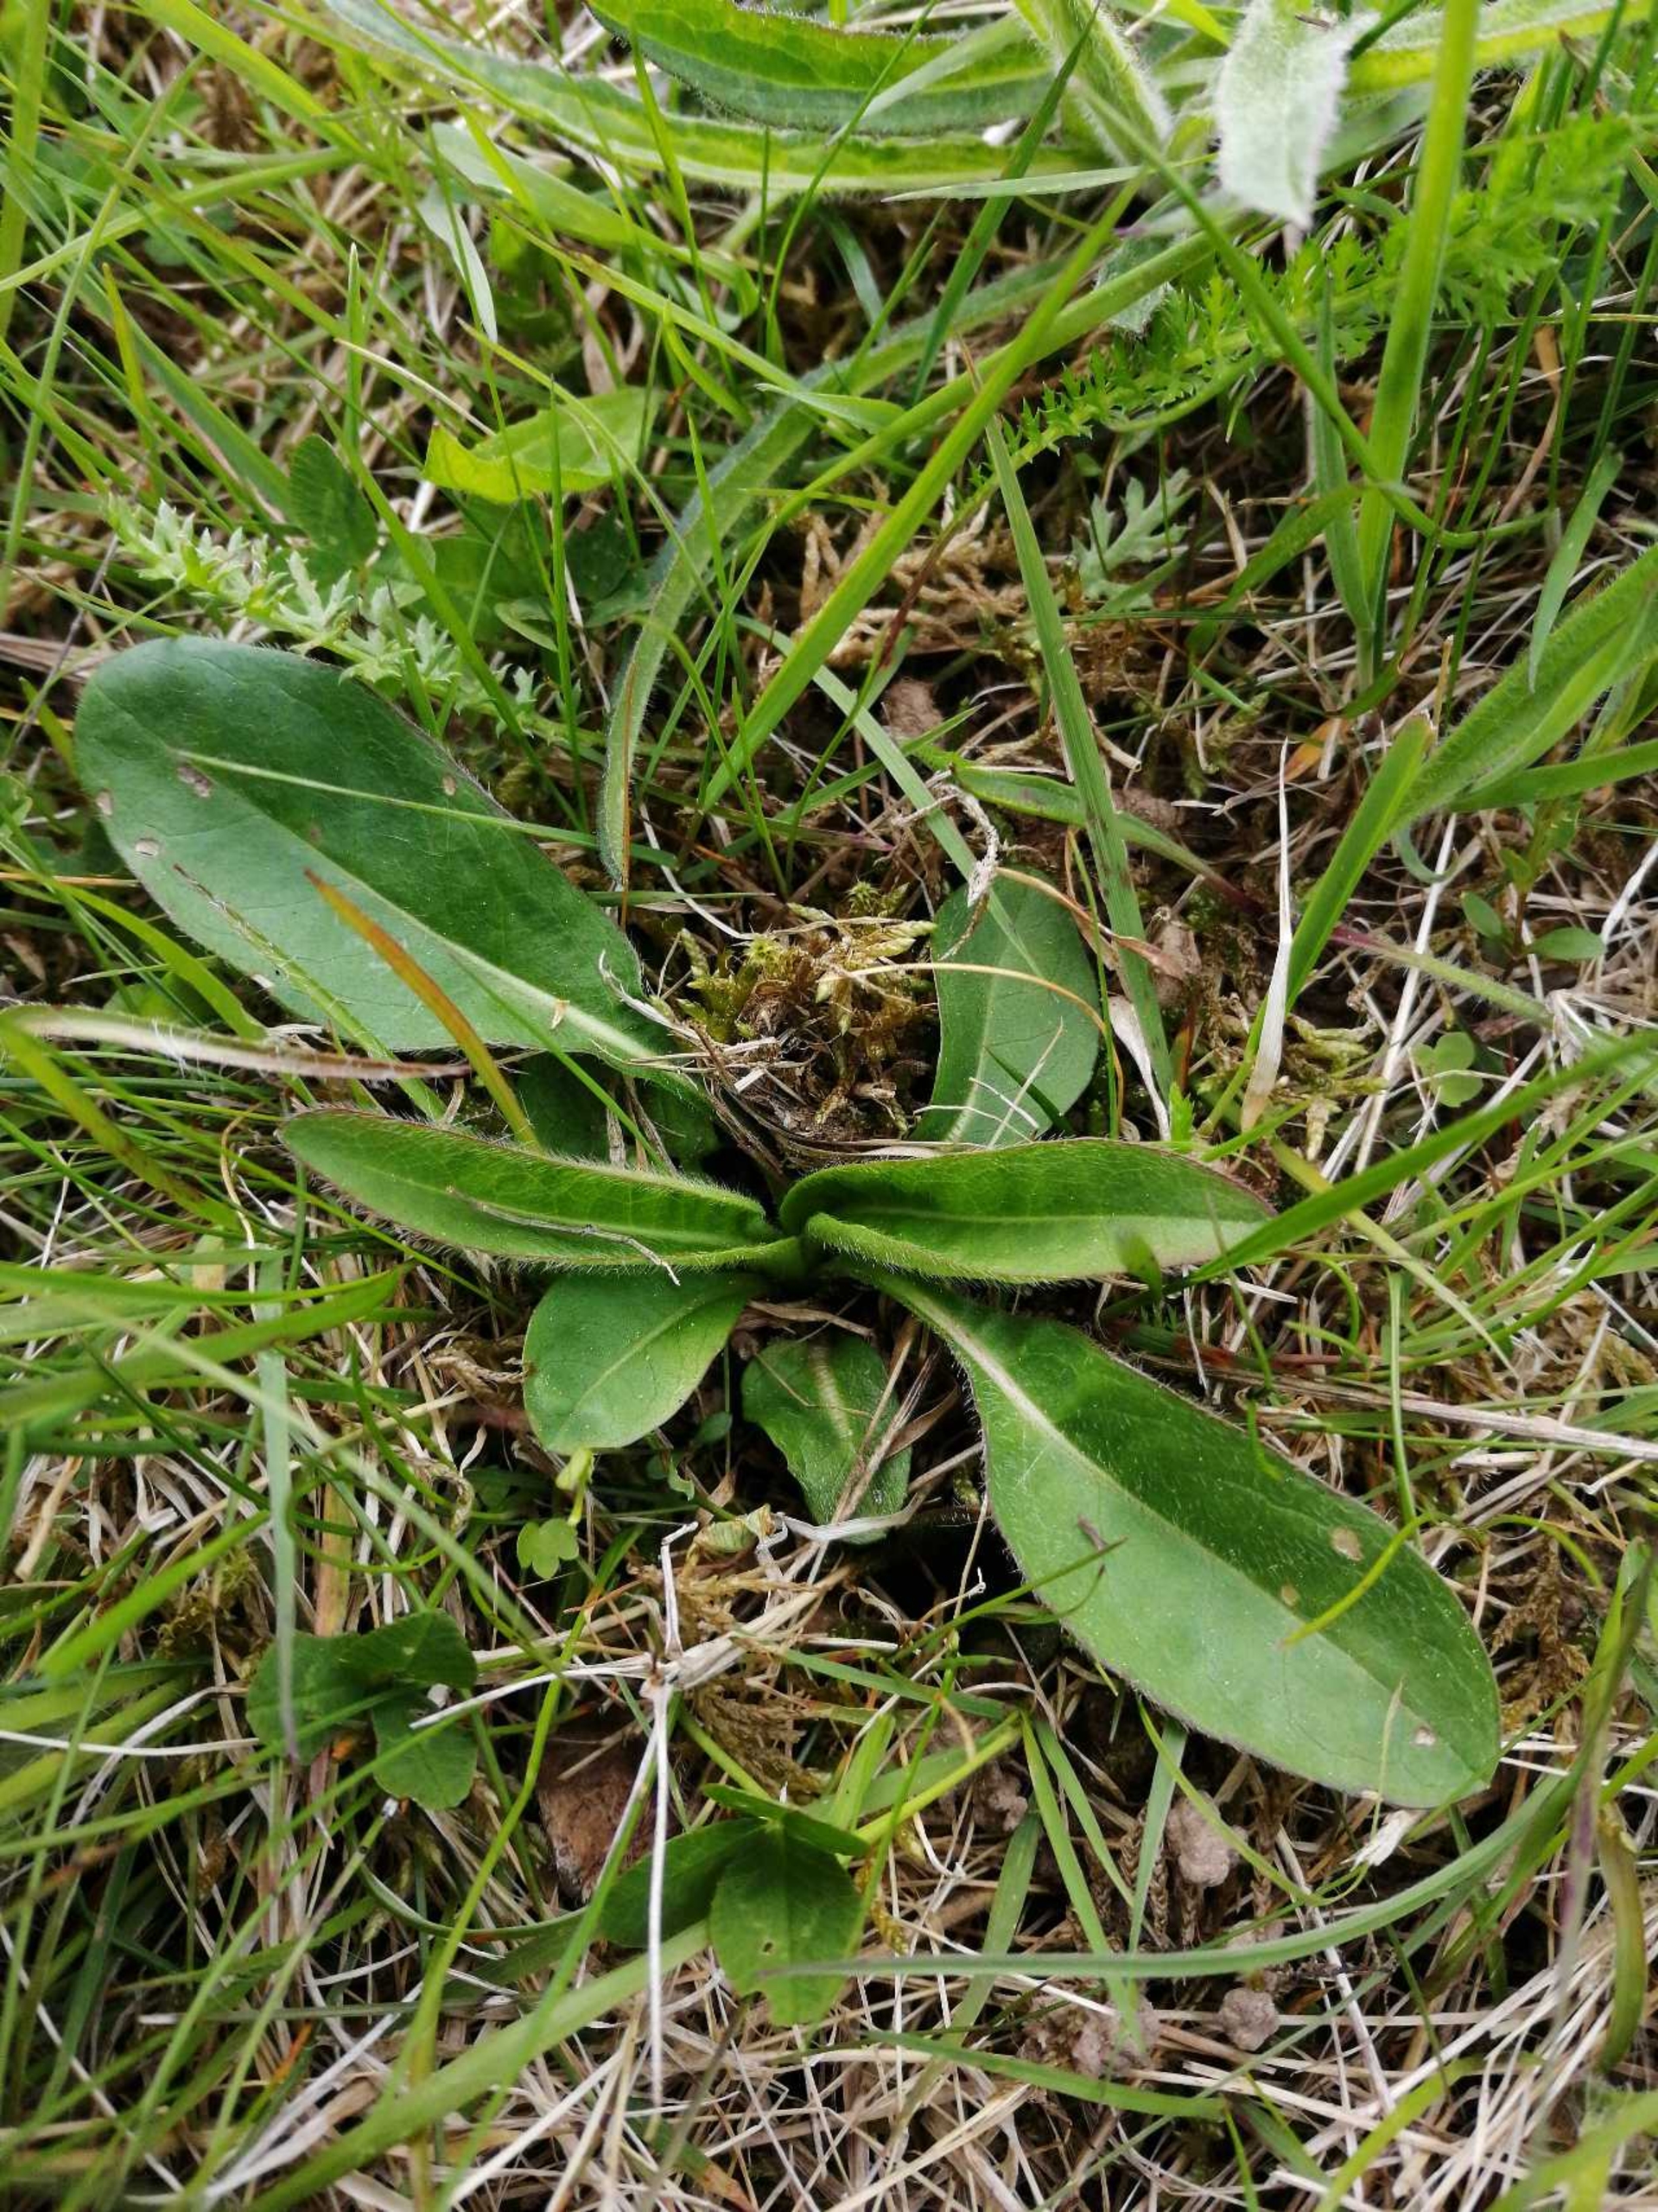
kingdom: Plantae
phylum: Tracheophyta
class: Magnoliopsida
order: Dipsacales
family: Caprifoliaceae
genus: Succisa
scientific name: Succisa pratensis
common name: Djævelsbid
